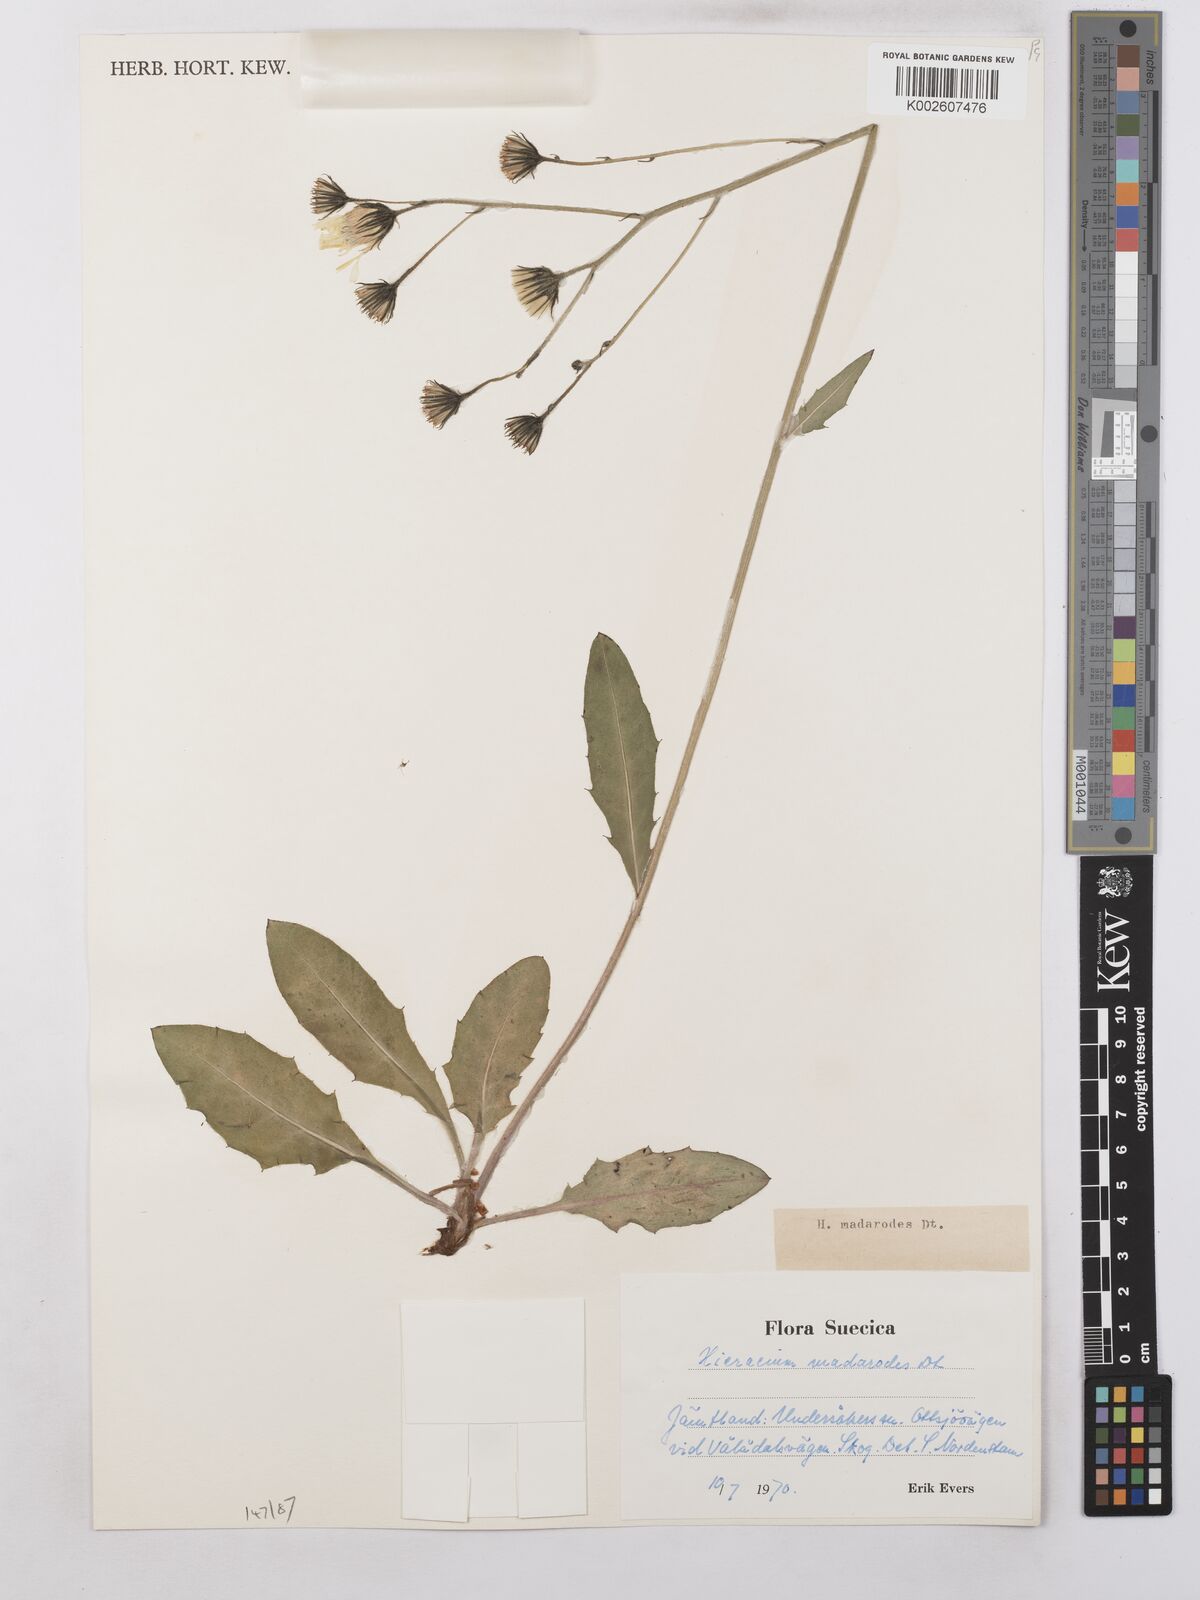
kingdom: Plantae
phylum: Tracheophyta
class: Magnoliopsida
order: Asterales
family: Asteraceae
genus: Hieracium
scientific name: Hieracium caesium
